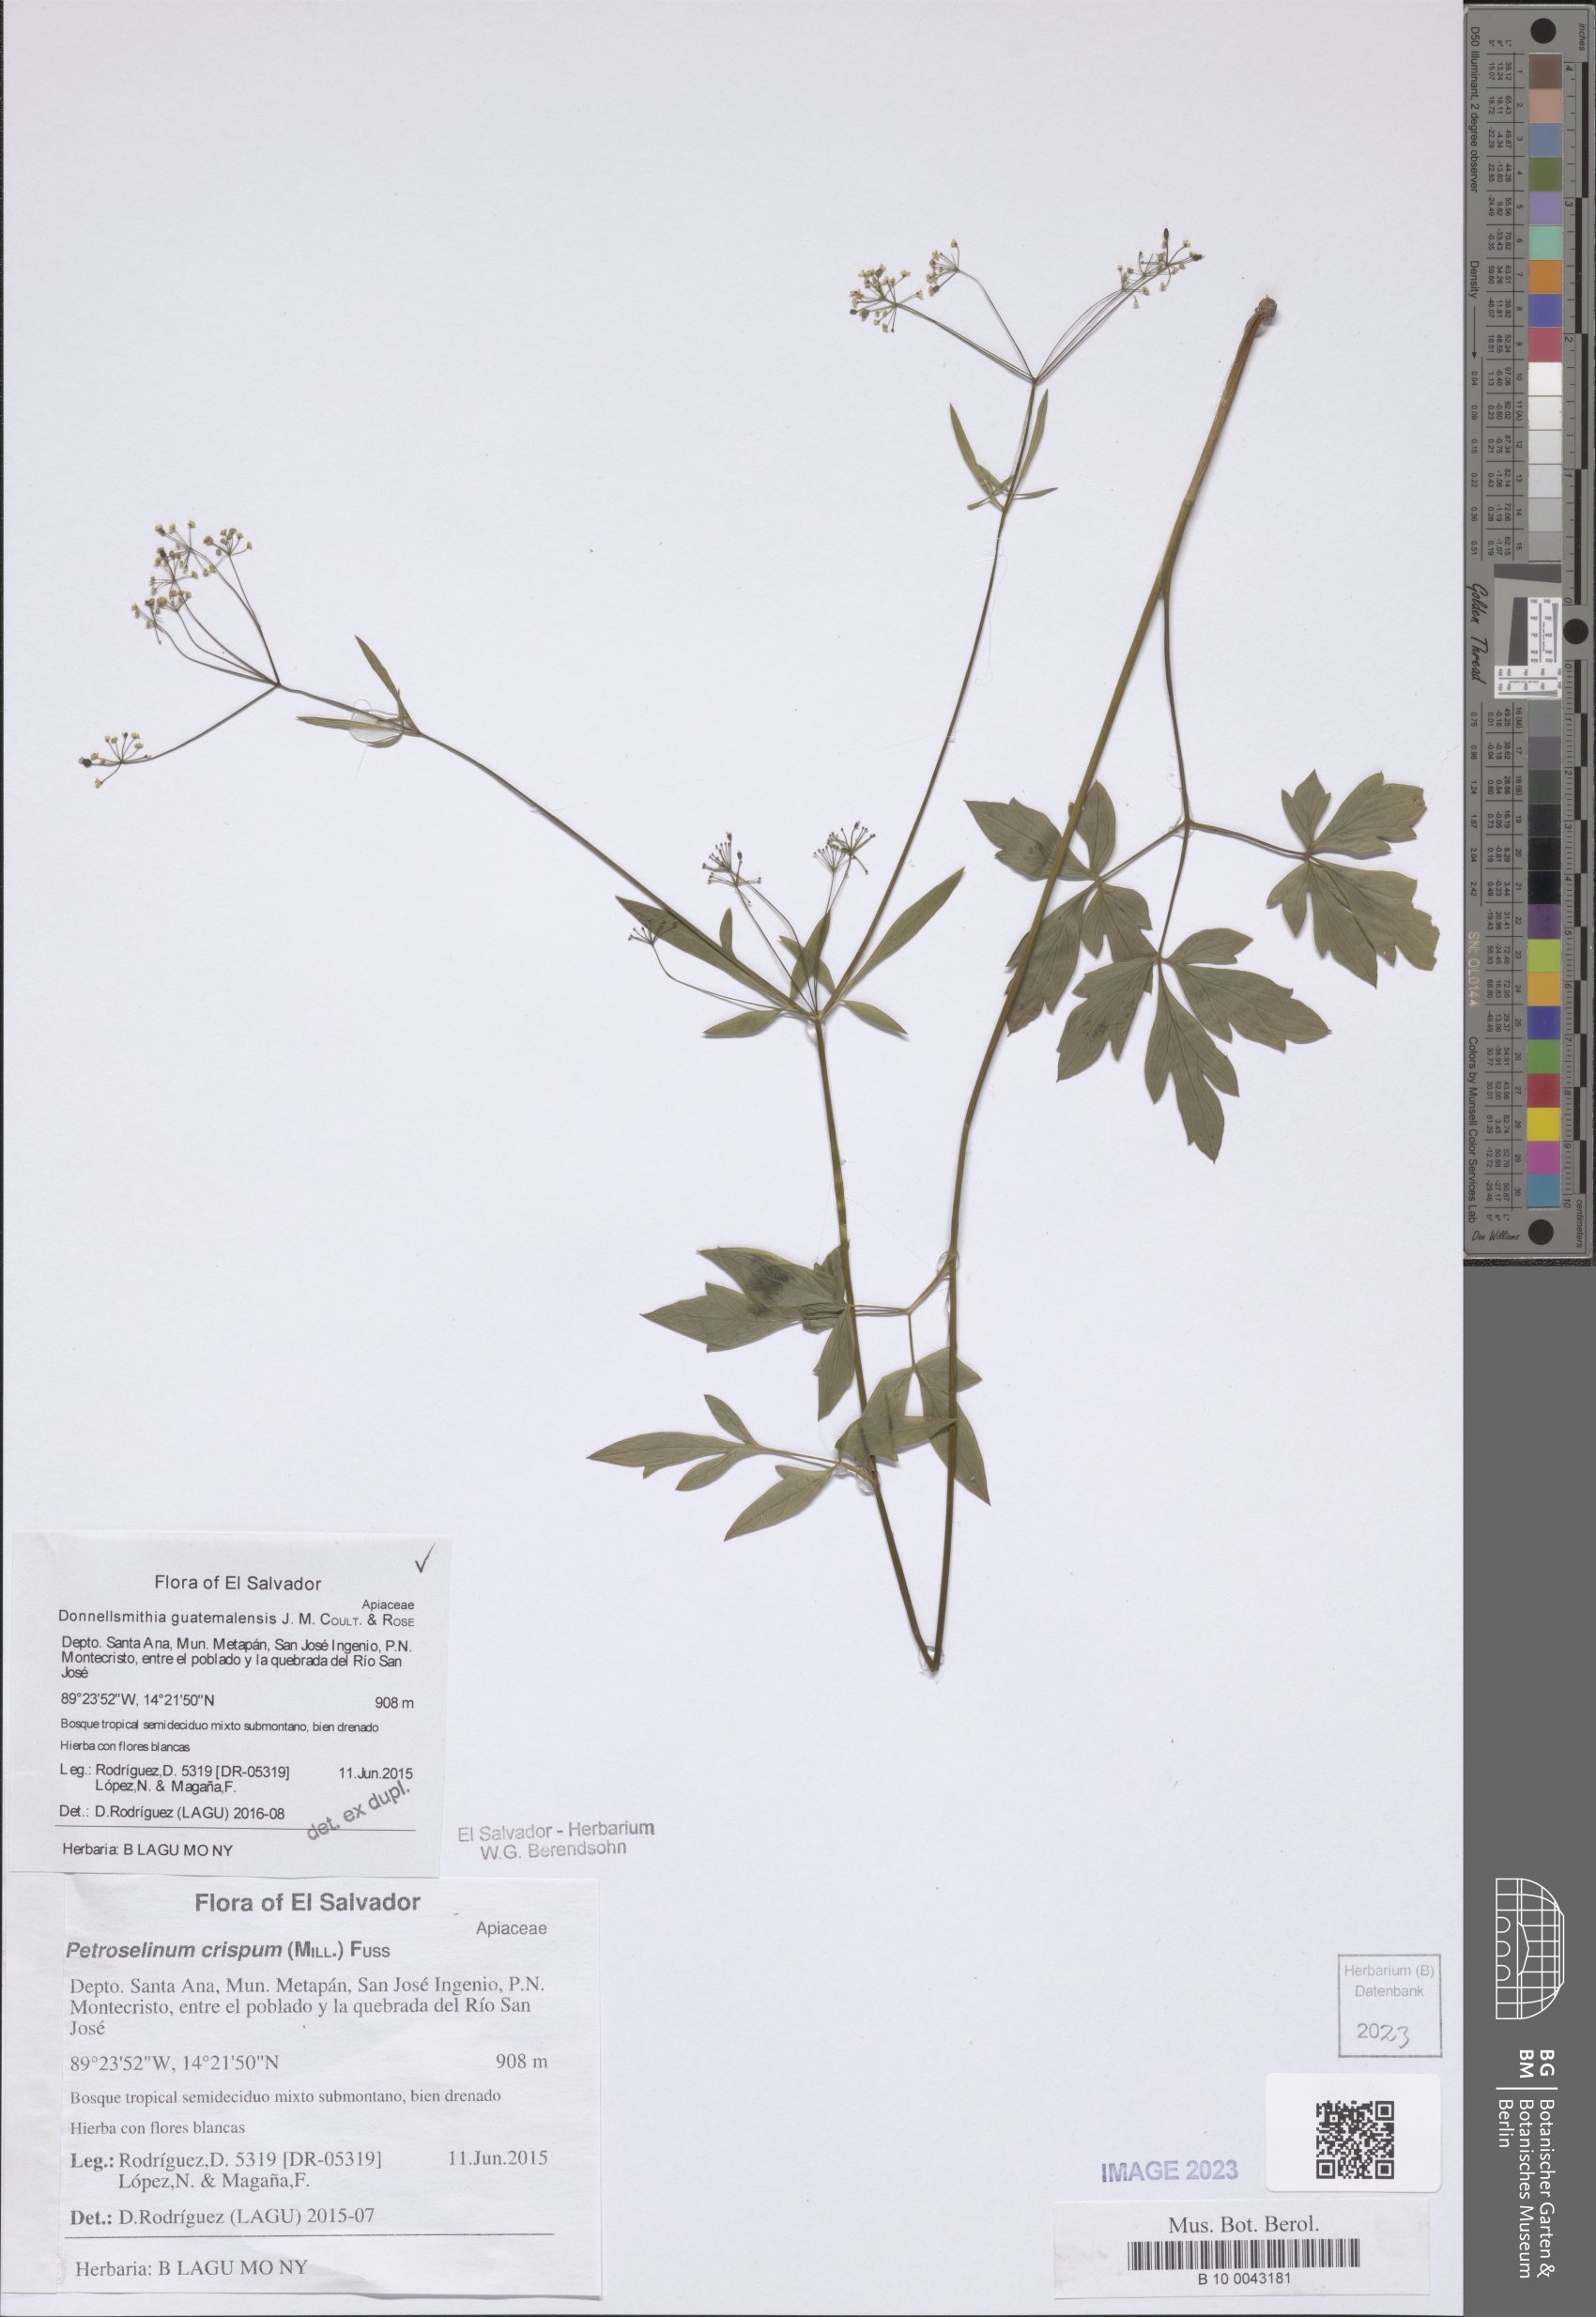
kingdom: Plantae
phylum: Tracheophyta
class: Magnoliopsida
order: Apiales
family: Apiaceae
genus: Donnellsmithia
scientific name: Donnellsmithia guatemalensis
